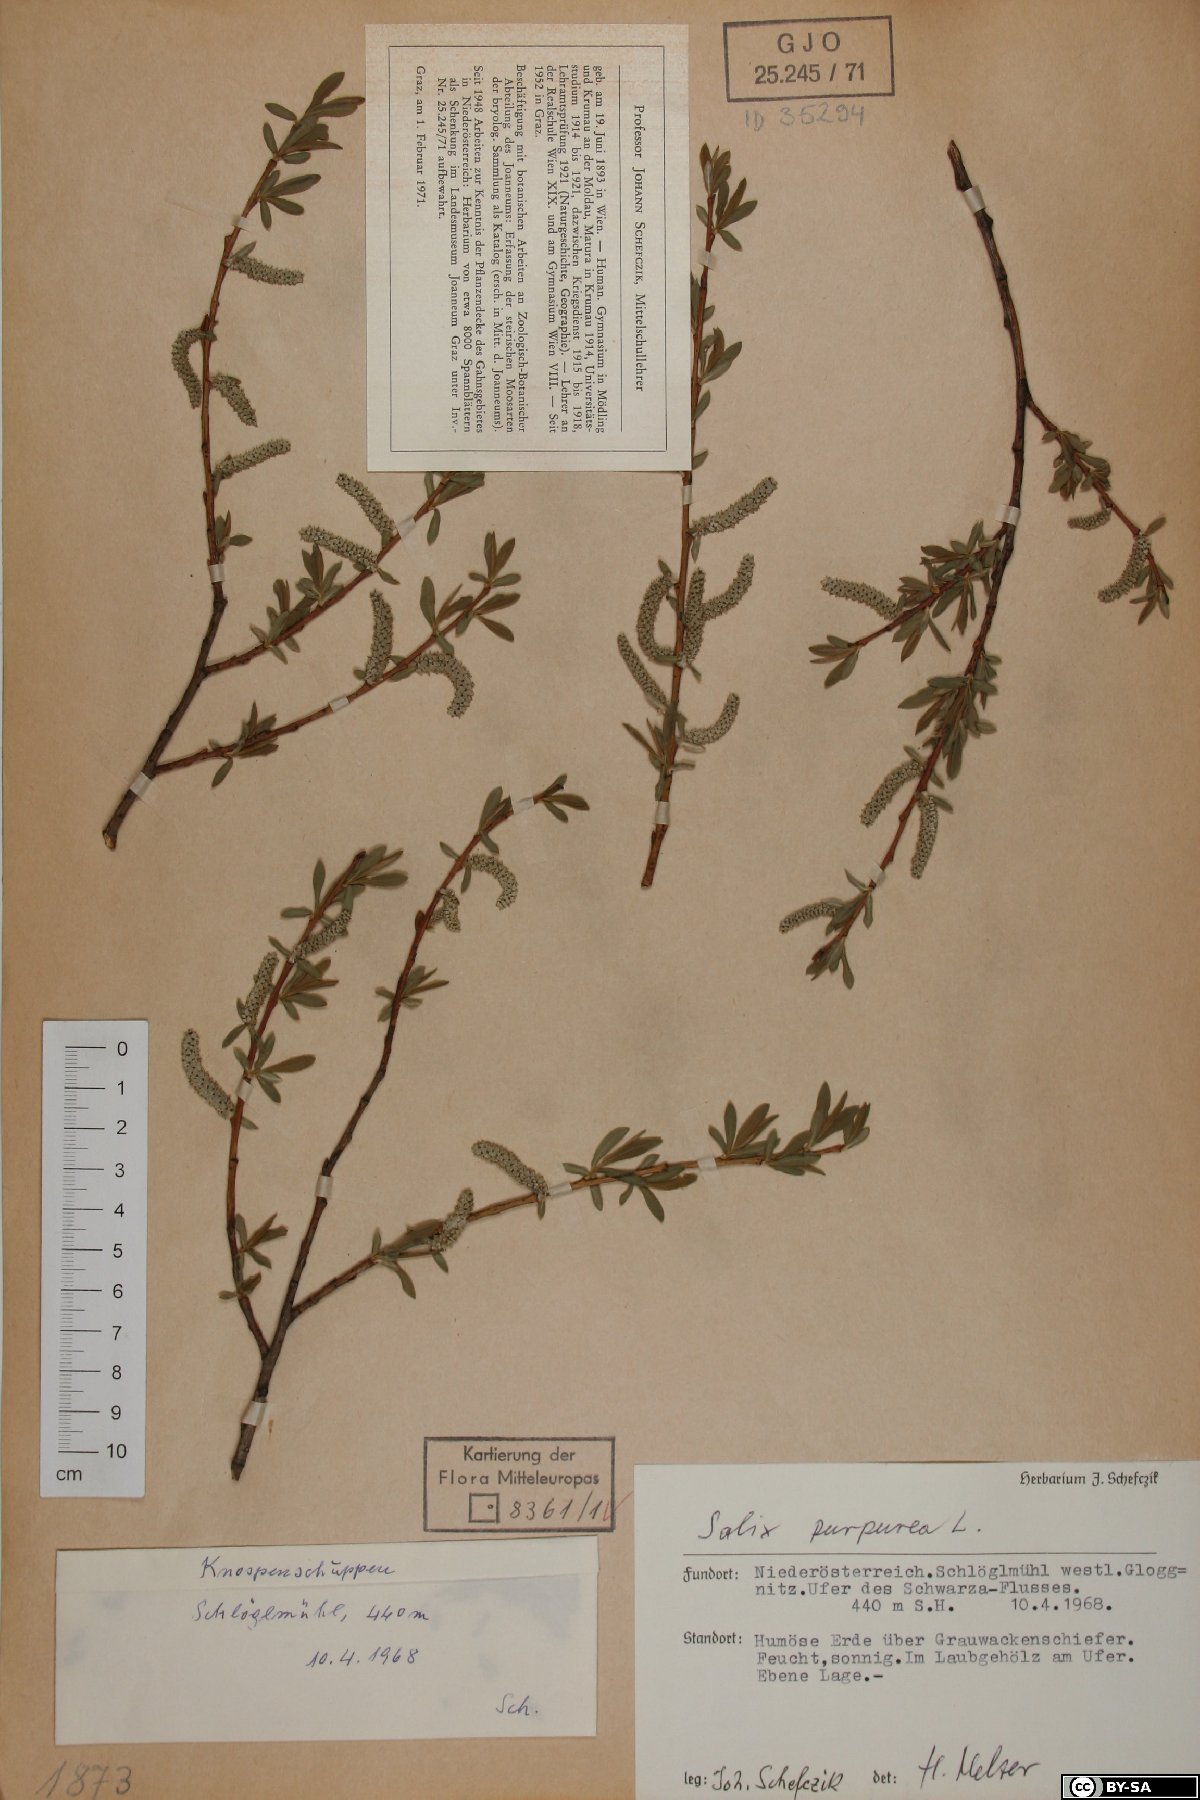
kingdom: Plantae
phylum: Tracheophyta
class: Magnoliopsida
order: Malpighiales
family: Salicaceae
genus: Salix
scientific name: Salix purpurea
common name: Purple willow
